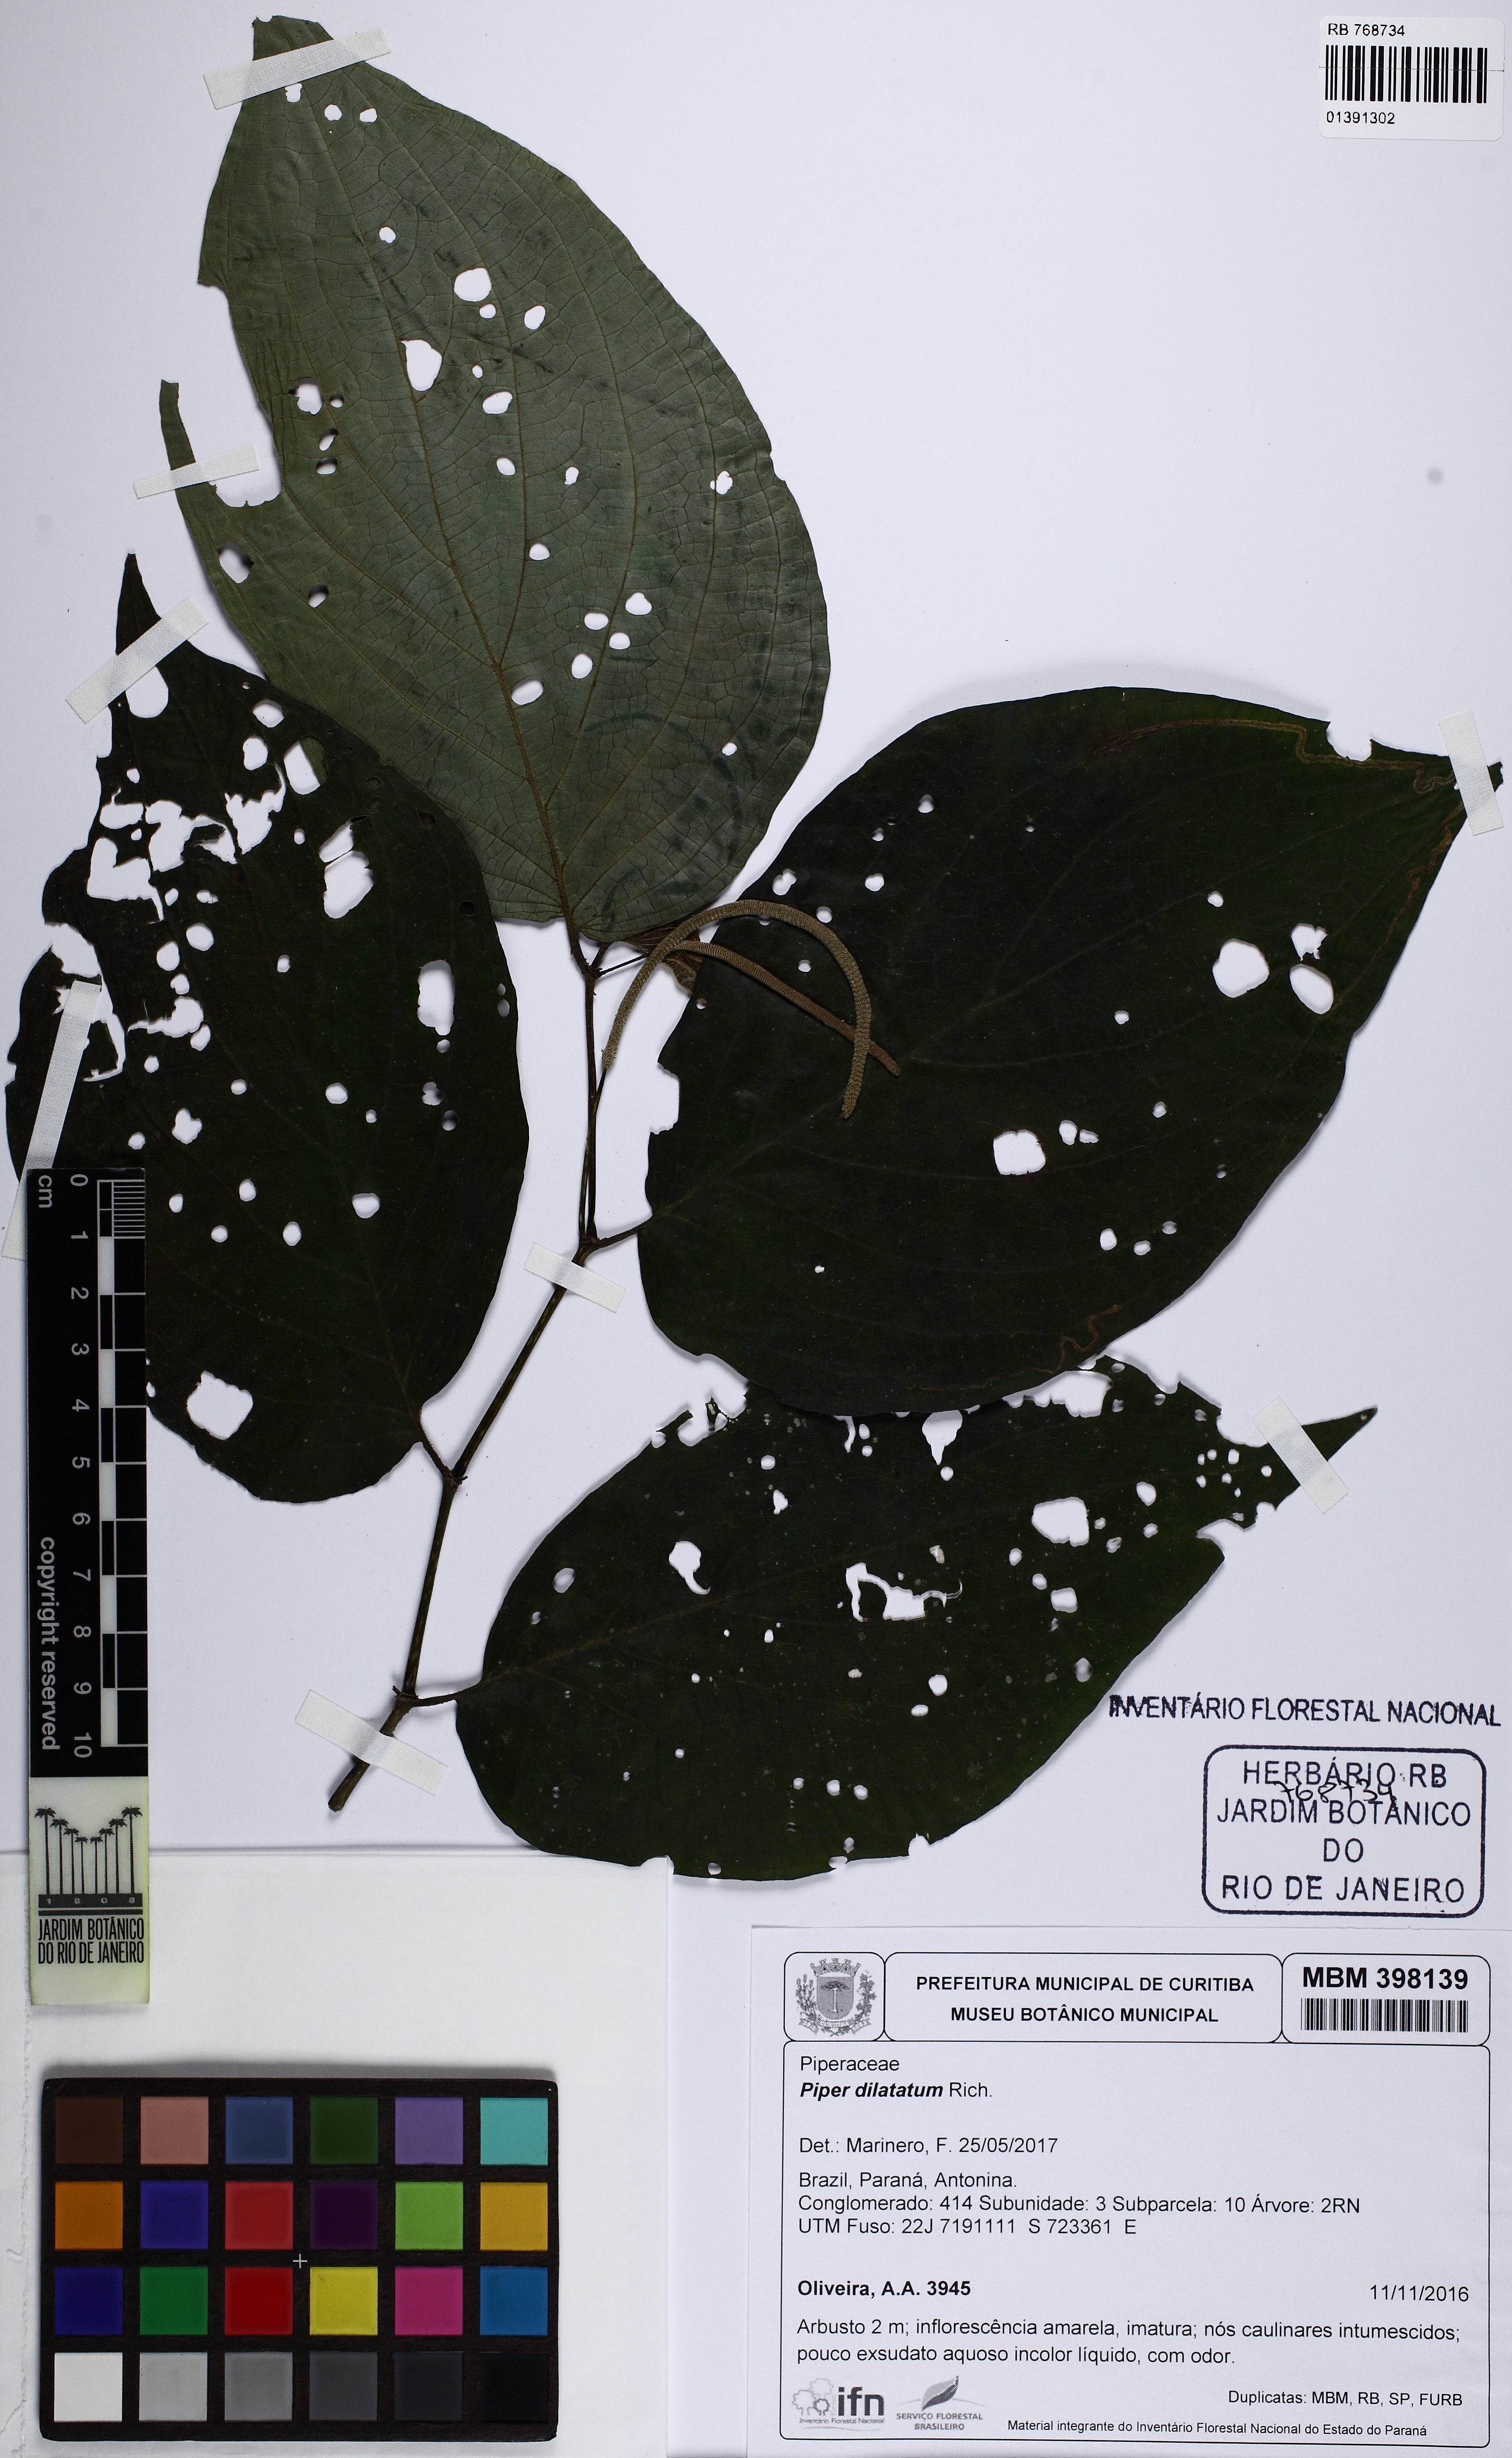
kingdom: Plantae
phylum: Tracheophyta
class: Magnoliopsida
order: Piperales
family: Piperaceae
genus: Piper
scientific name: Piper dilatatum
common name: Higuillo
